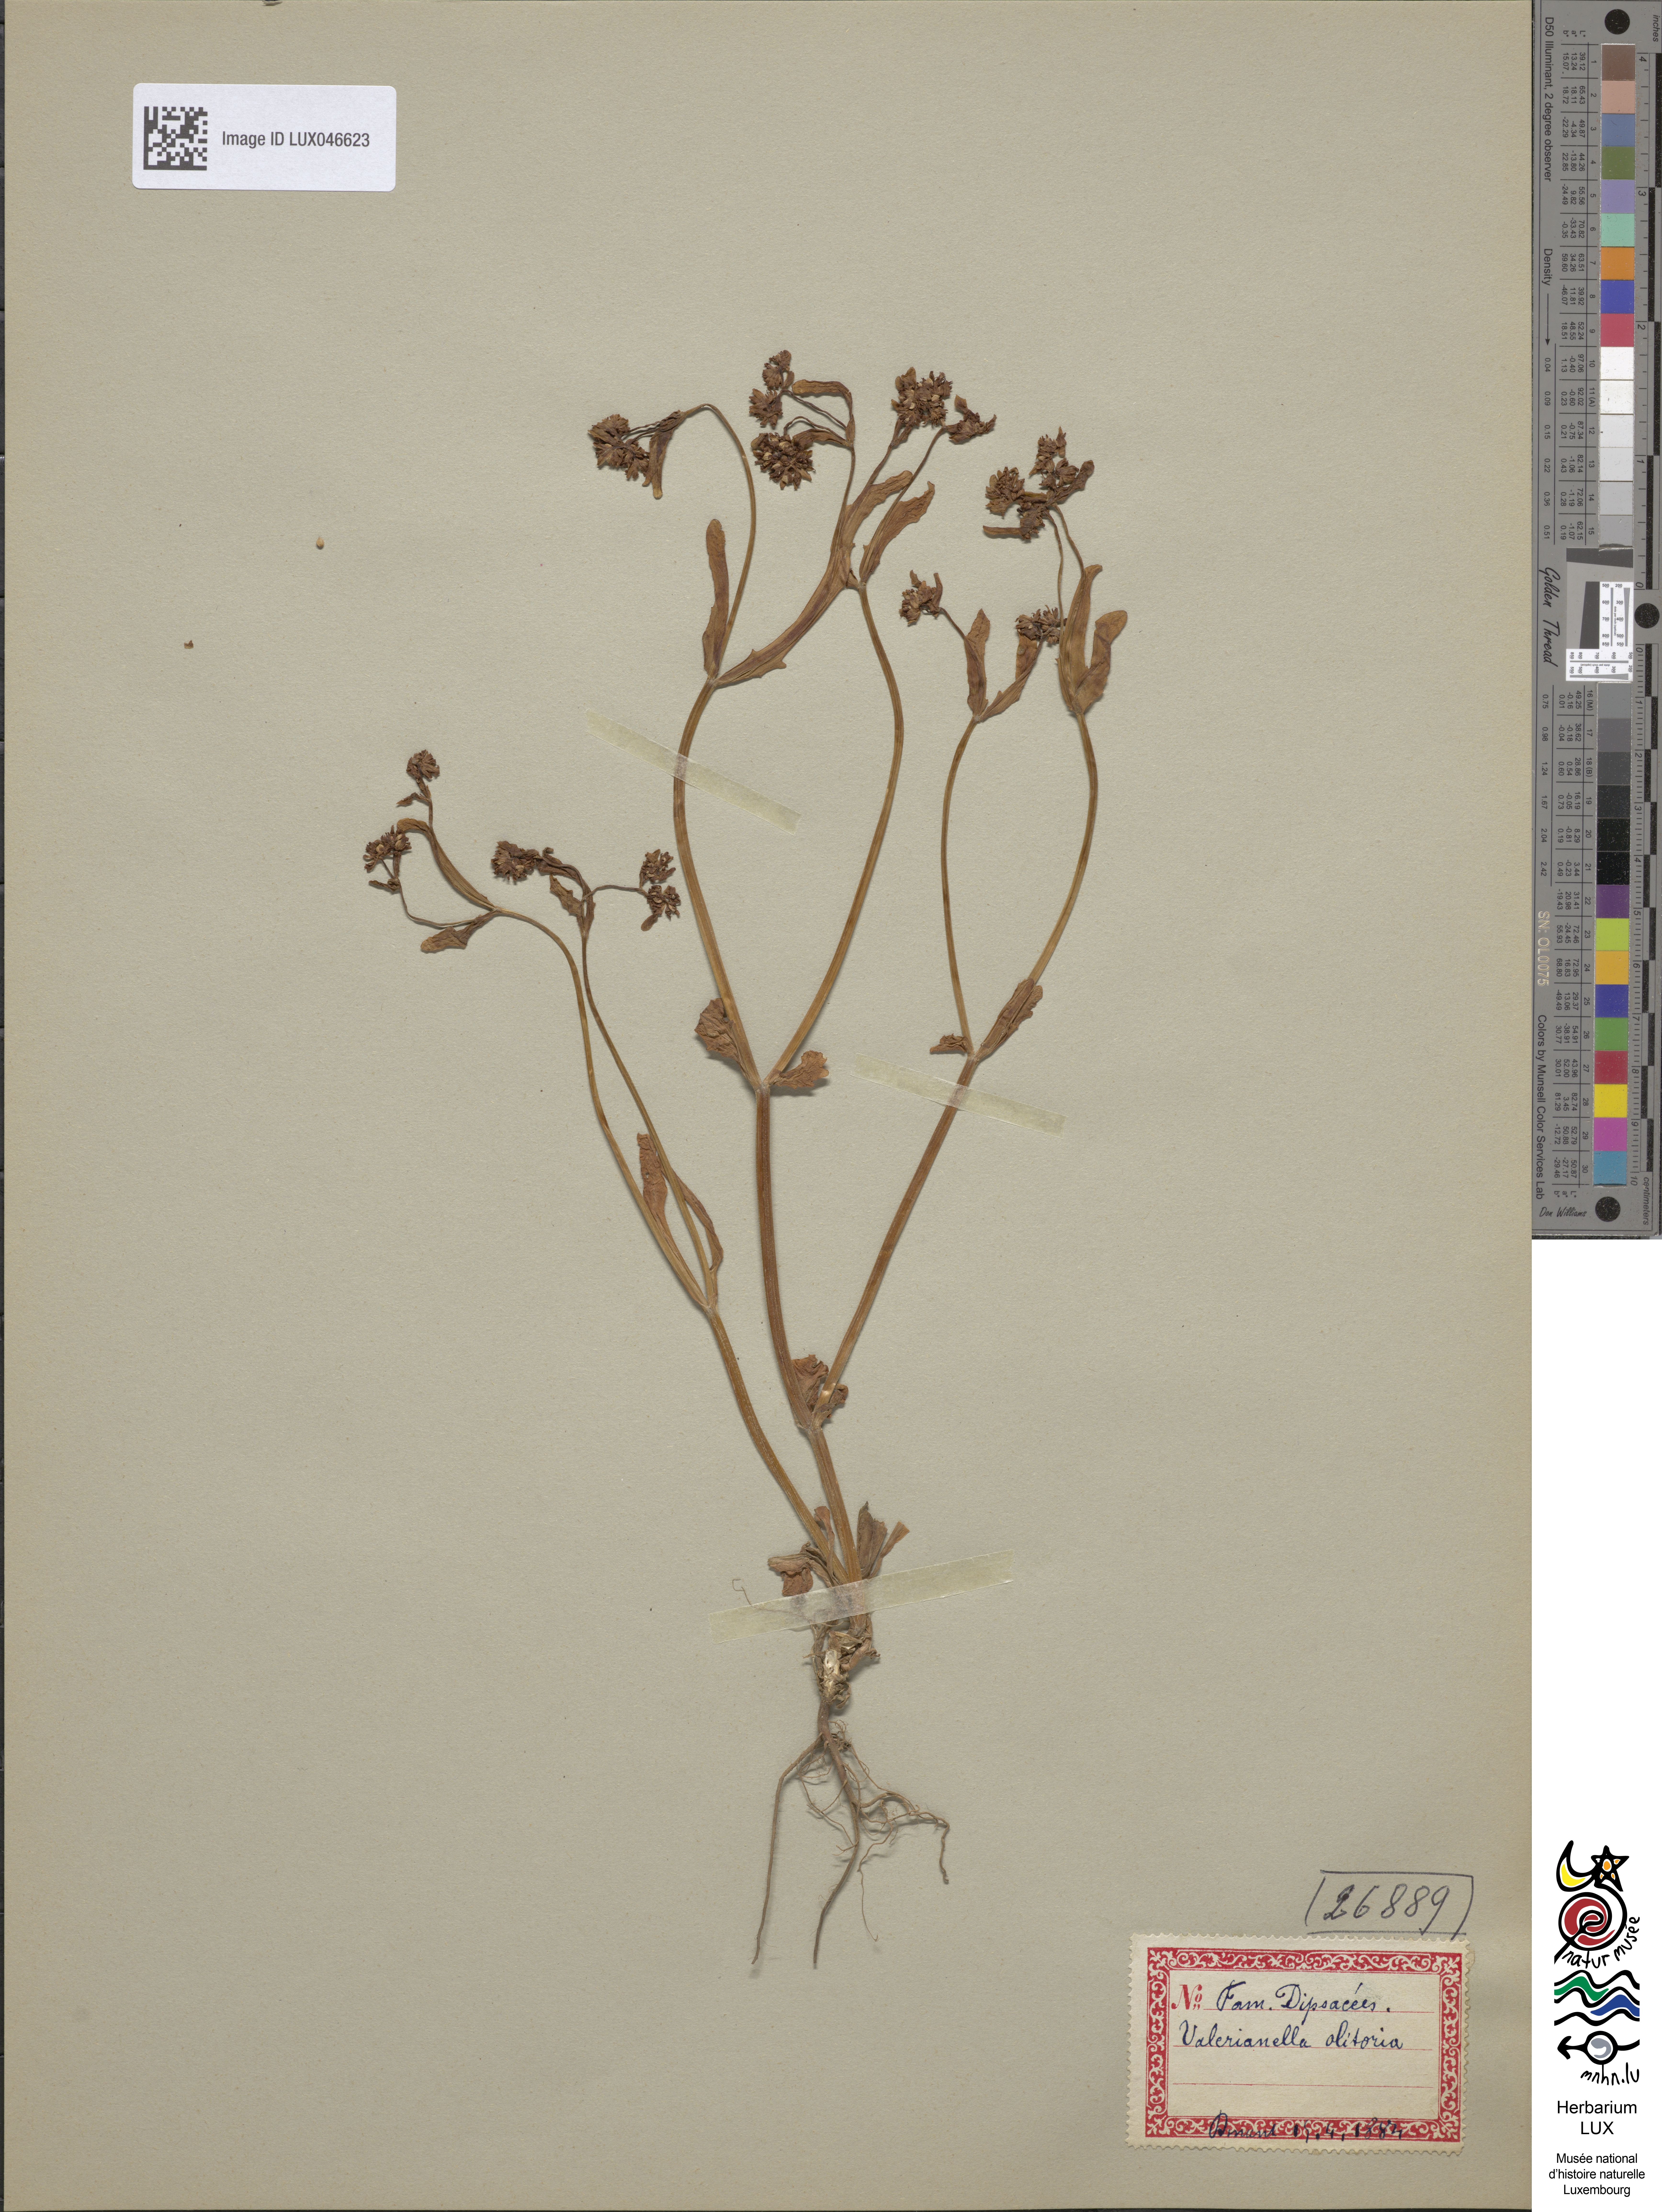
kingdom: Plantae
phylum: Tracheophyta
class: Magnoliopsida
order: Dipsacales
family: Caprifoliaceae
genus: Valerianella
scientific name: Valerianella locusta
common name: Common cornsalad
